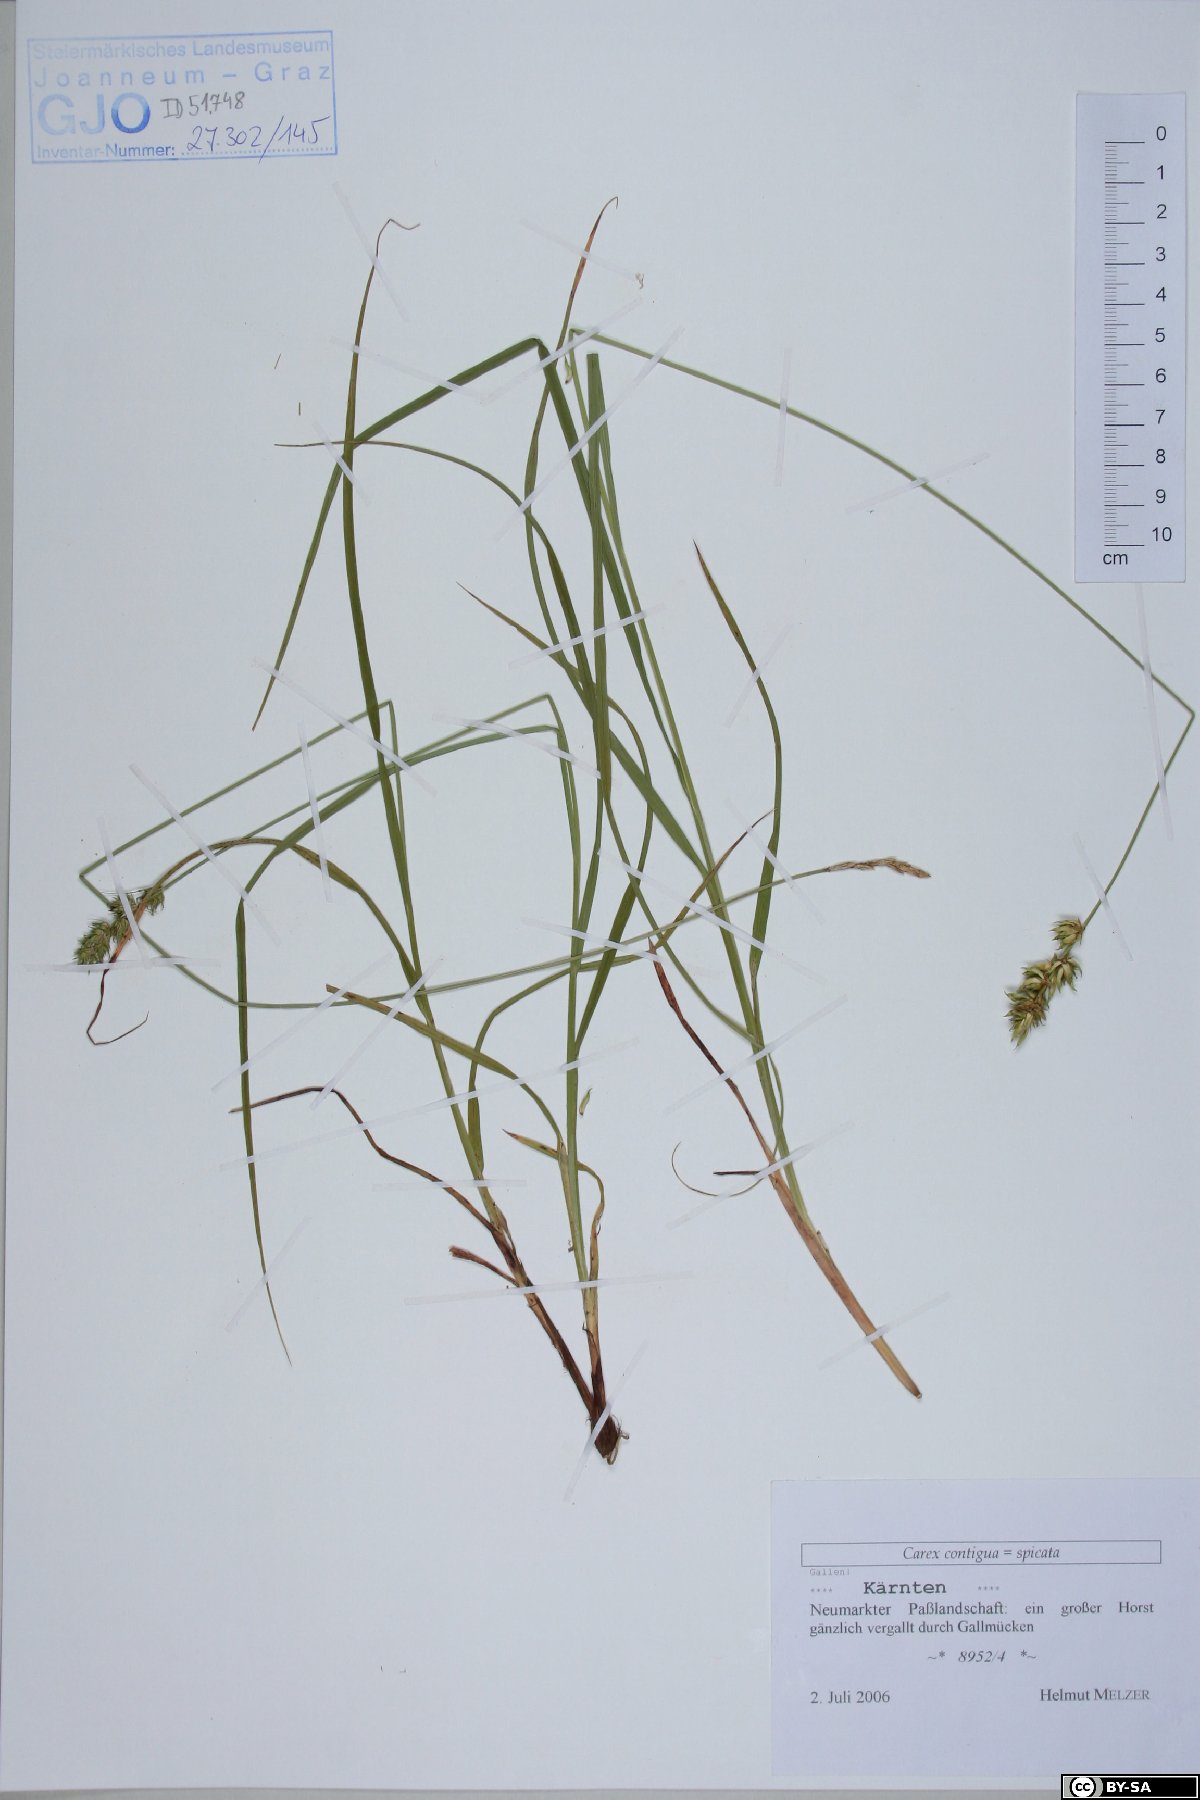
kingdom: Plantae
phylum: Tracheophyta
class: Liliopsida
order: Poales
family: Cyperaceae
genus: Carex
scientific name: Carex spicata
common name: Spiked sedge
